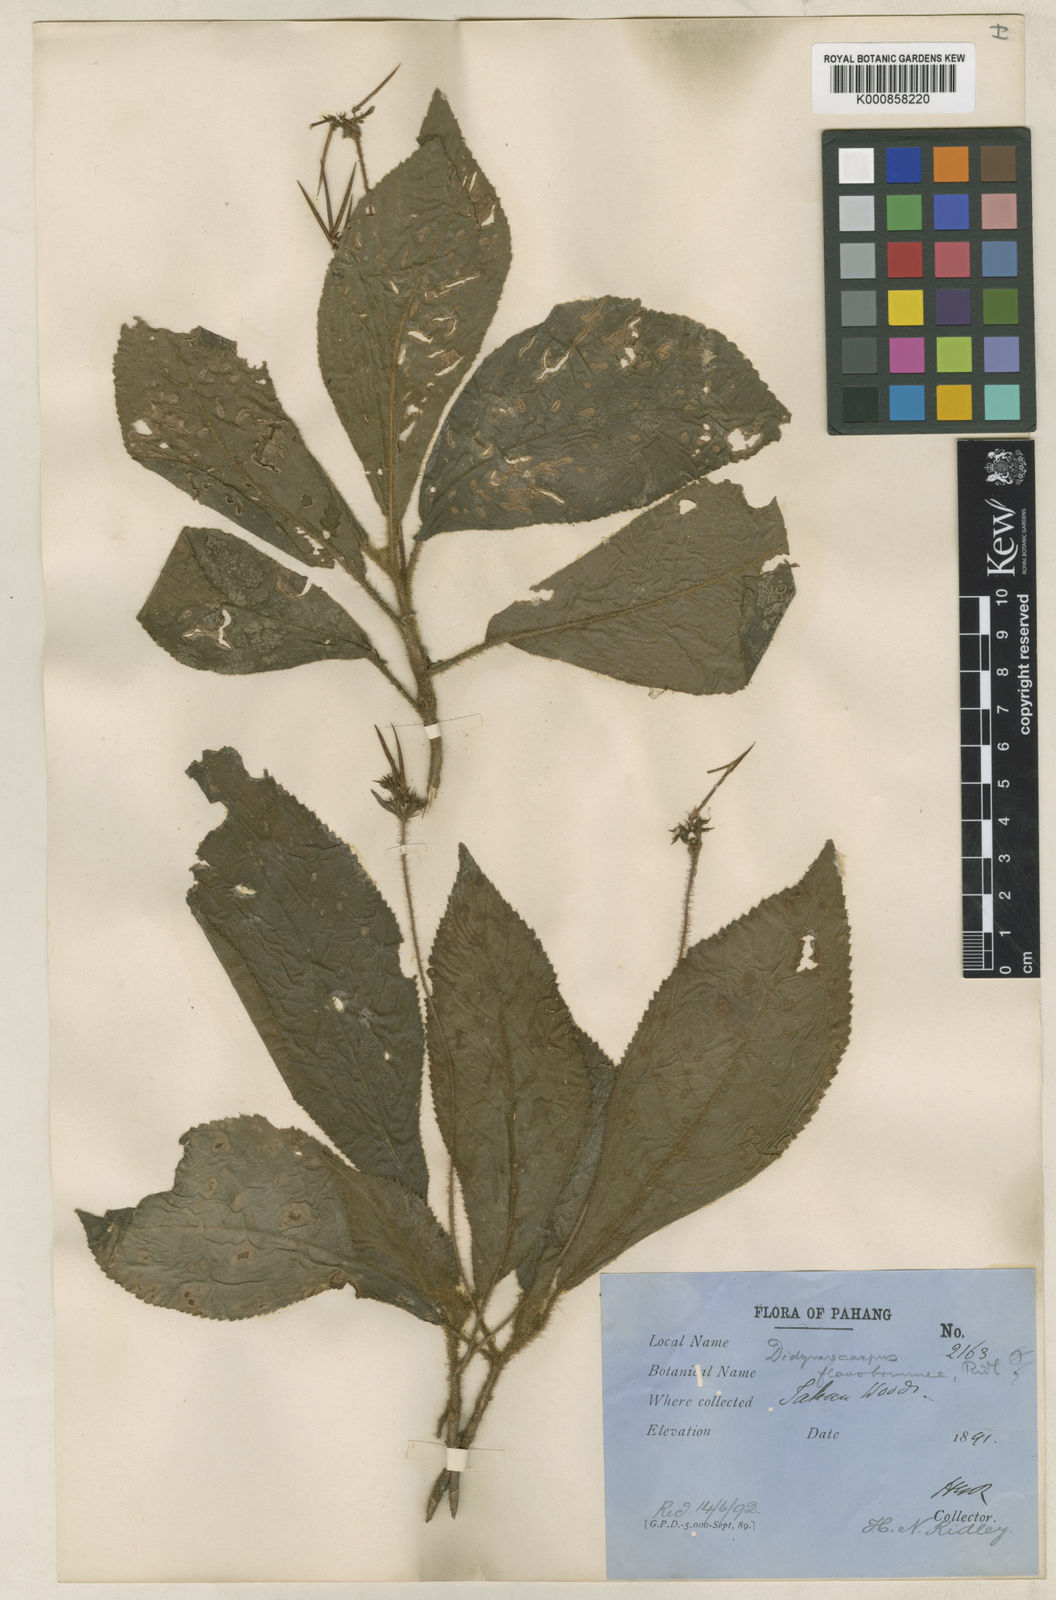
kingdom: Plantae
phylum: Tracheophyta
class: Magnoliopsida
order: Lamiales
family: Gesneriaceae
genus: Codonoboea
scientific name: Codonoboea flavobrunnea
